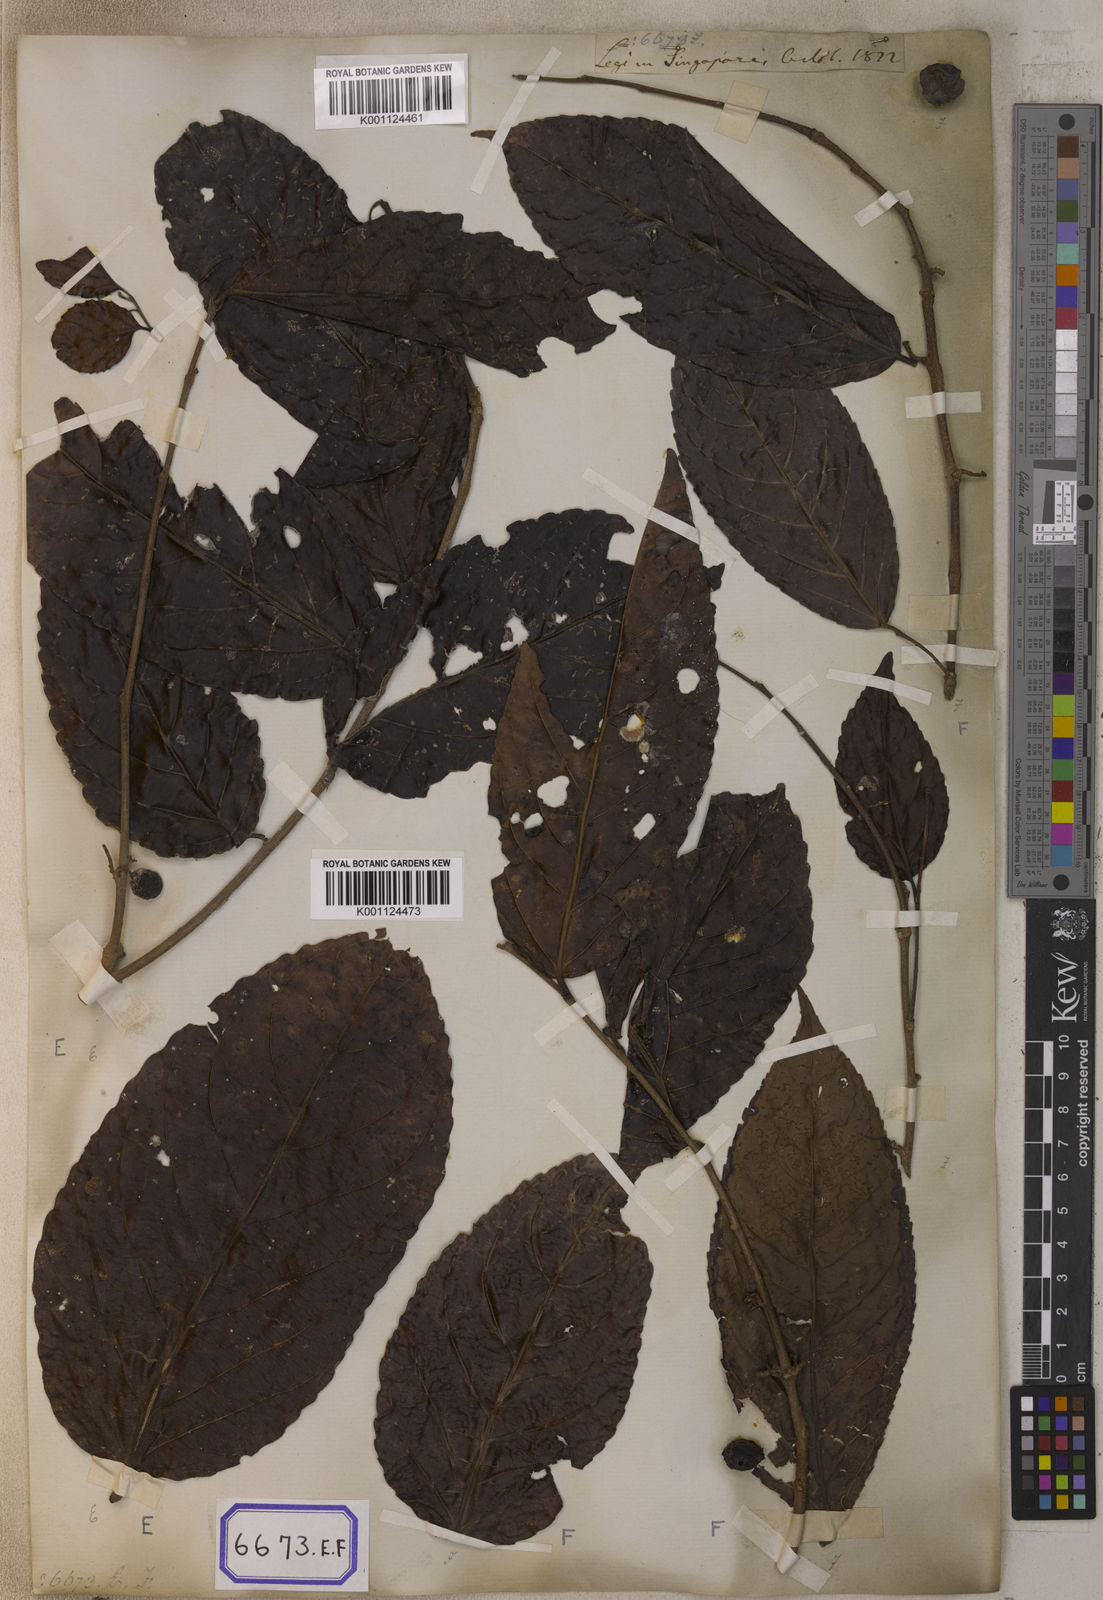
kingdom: Plantae
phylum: Tracheophyta
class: Magnoliopsida
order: Malpighiales
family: Salicaceae
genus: Flacourtia
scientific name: Flacourtia
